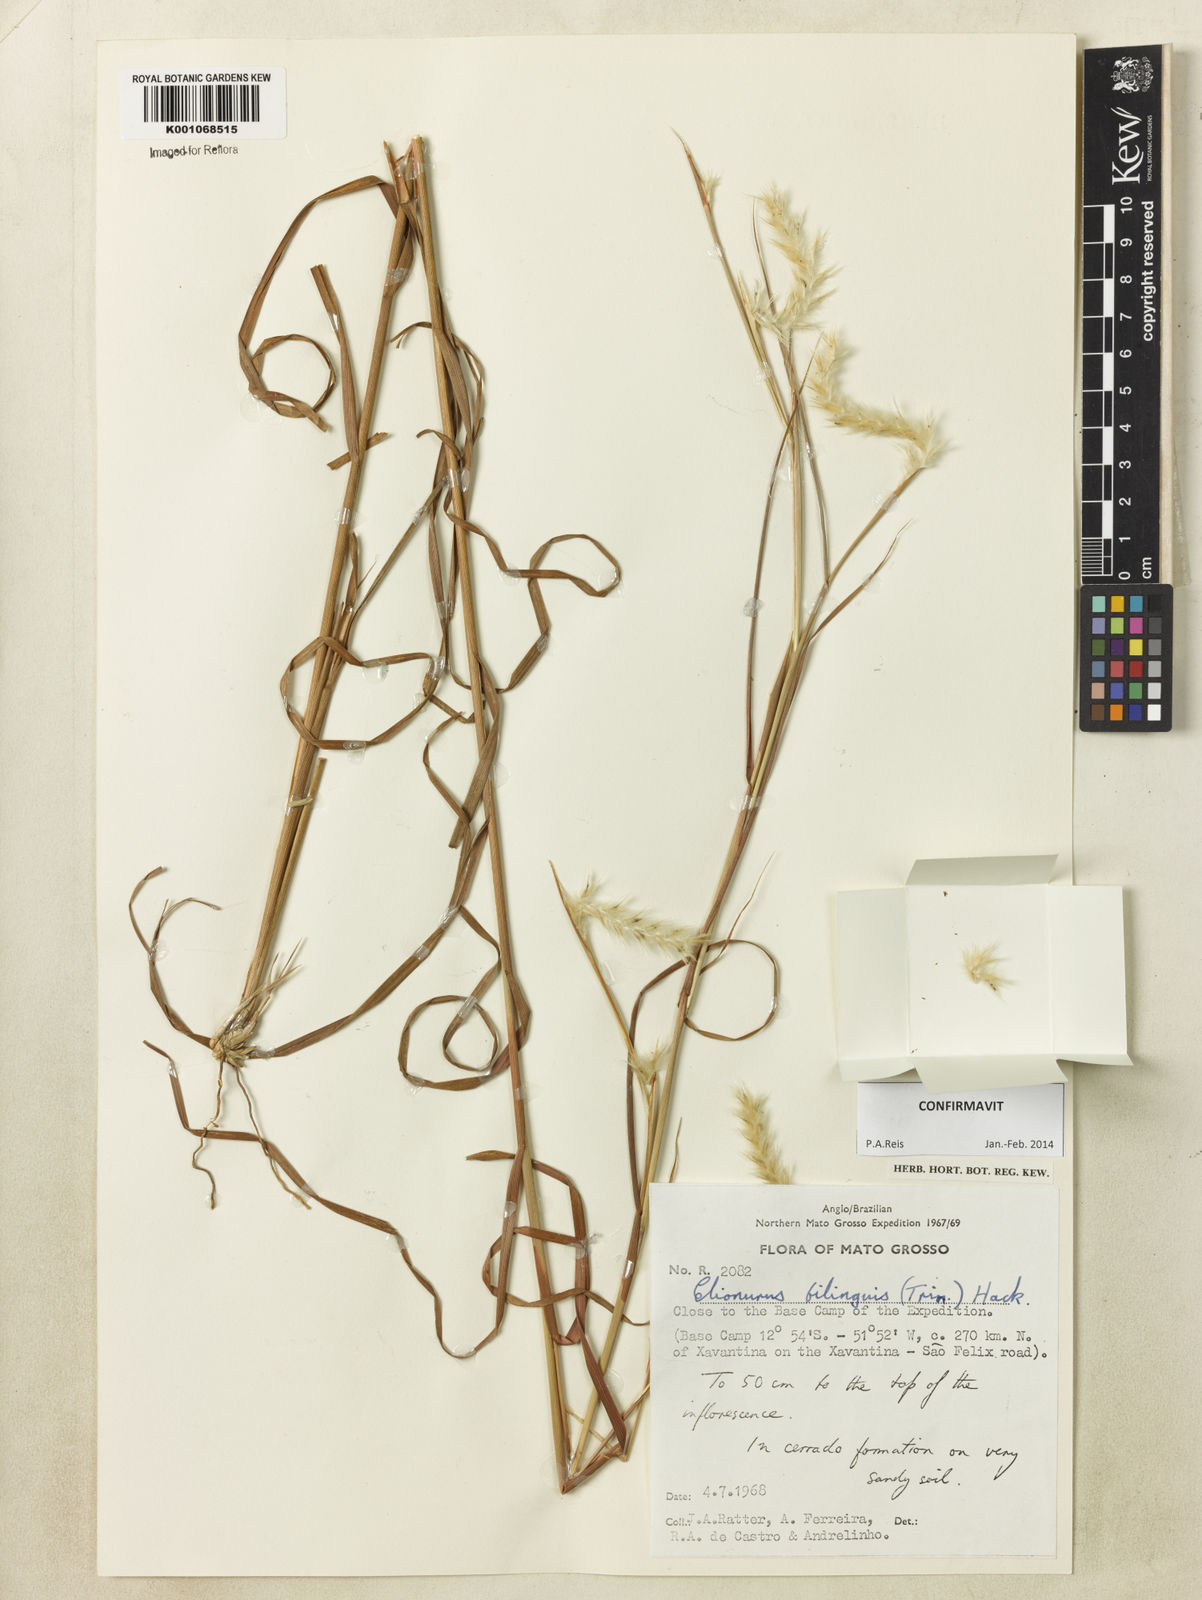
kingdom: Plantae
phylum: Tracheophyta
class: Liliopsida
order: Poales
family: Poaceae
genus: Elionurus
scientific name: Elionurus bilinguis
